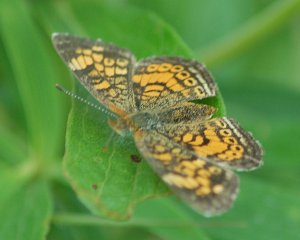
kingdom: Animalia
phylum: Arthropoda
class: Insecta
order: Lepidoptera
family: Nymphalidae
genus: Phyciodes
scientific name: Phyciodes tharos
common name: Pearl Crescent
